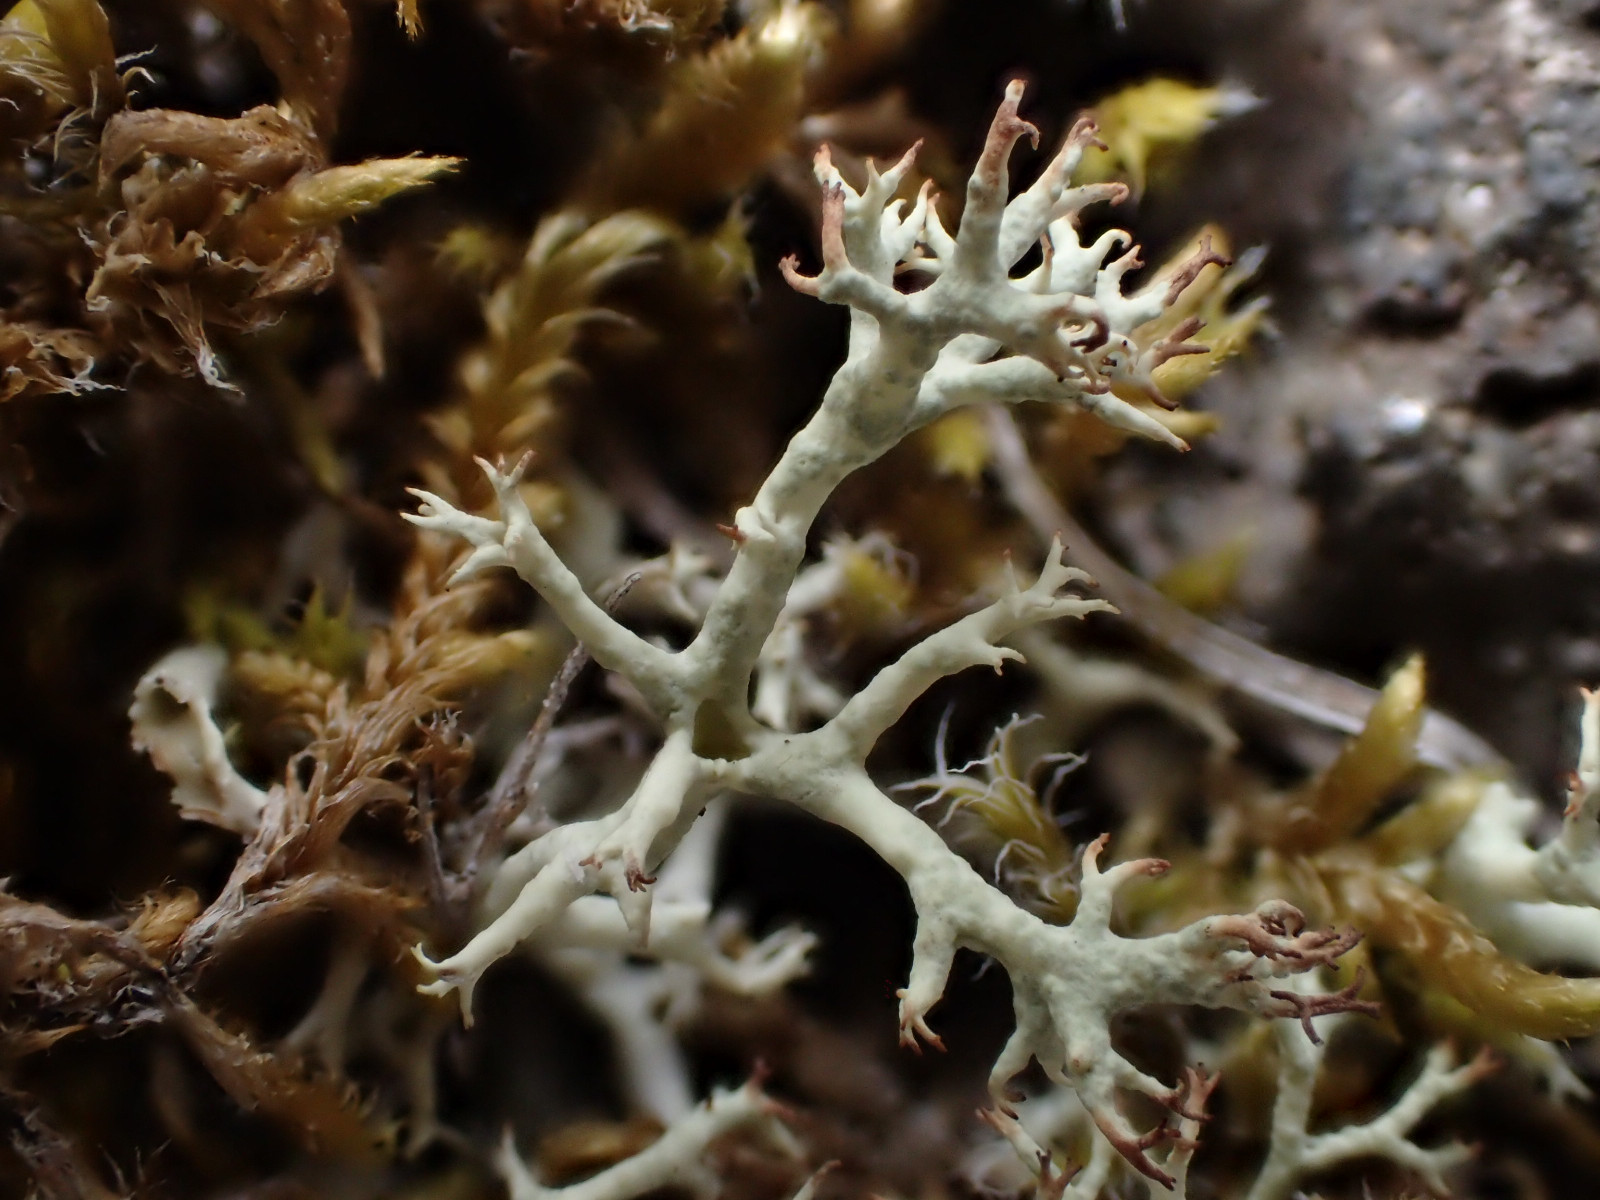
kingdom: Fungi
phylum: Ascomycota
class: Lecanoromycetes
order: Lecanorales
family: Cladoniaceae
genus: Cladonia
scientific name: Cladonia portentosa
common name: hede-rensdyrlav
